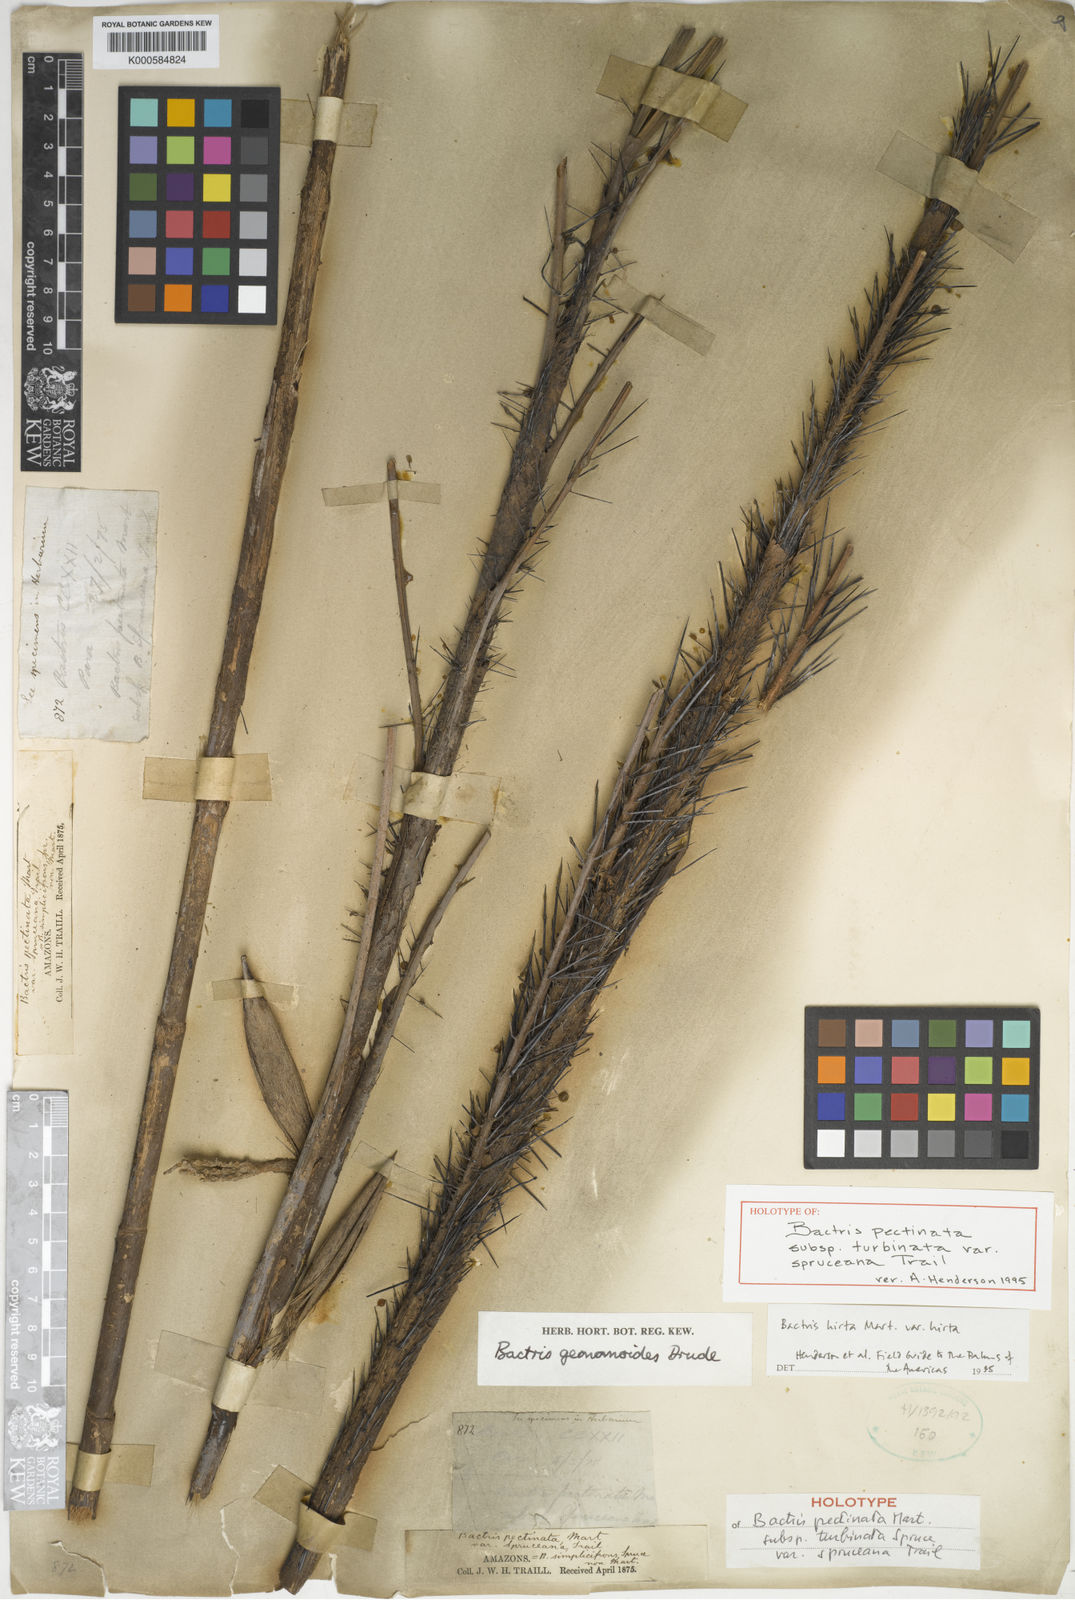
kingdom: Plantae
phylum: Tracheophyta
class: Liliopsida
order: Arecales
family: Arecaceae
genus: Bactris
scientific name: Bactris hirta
